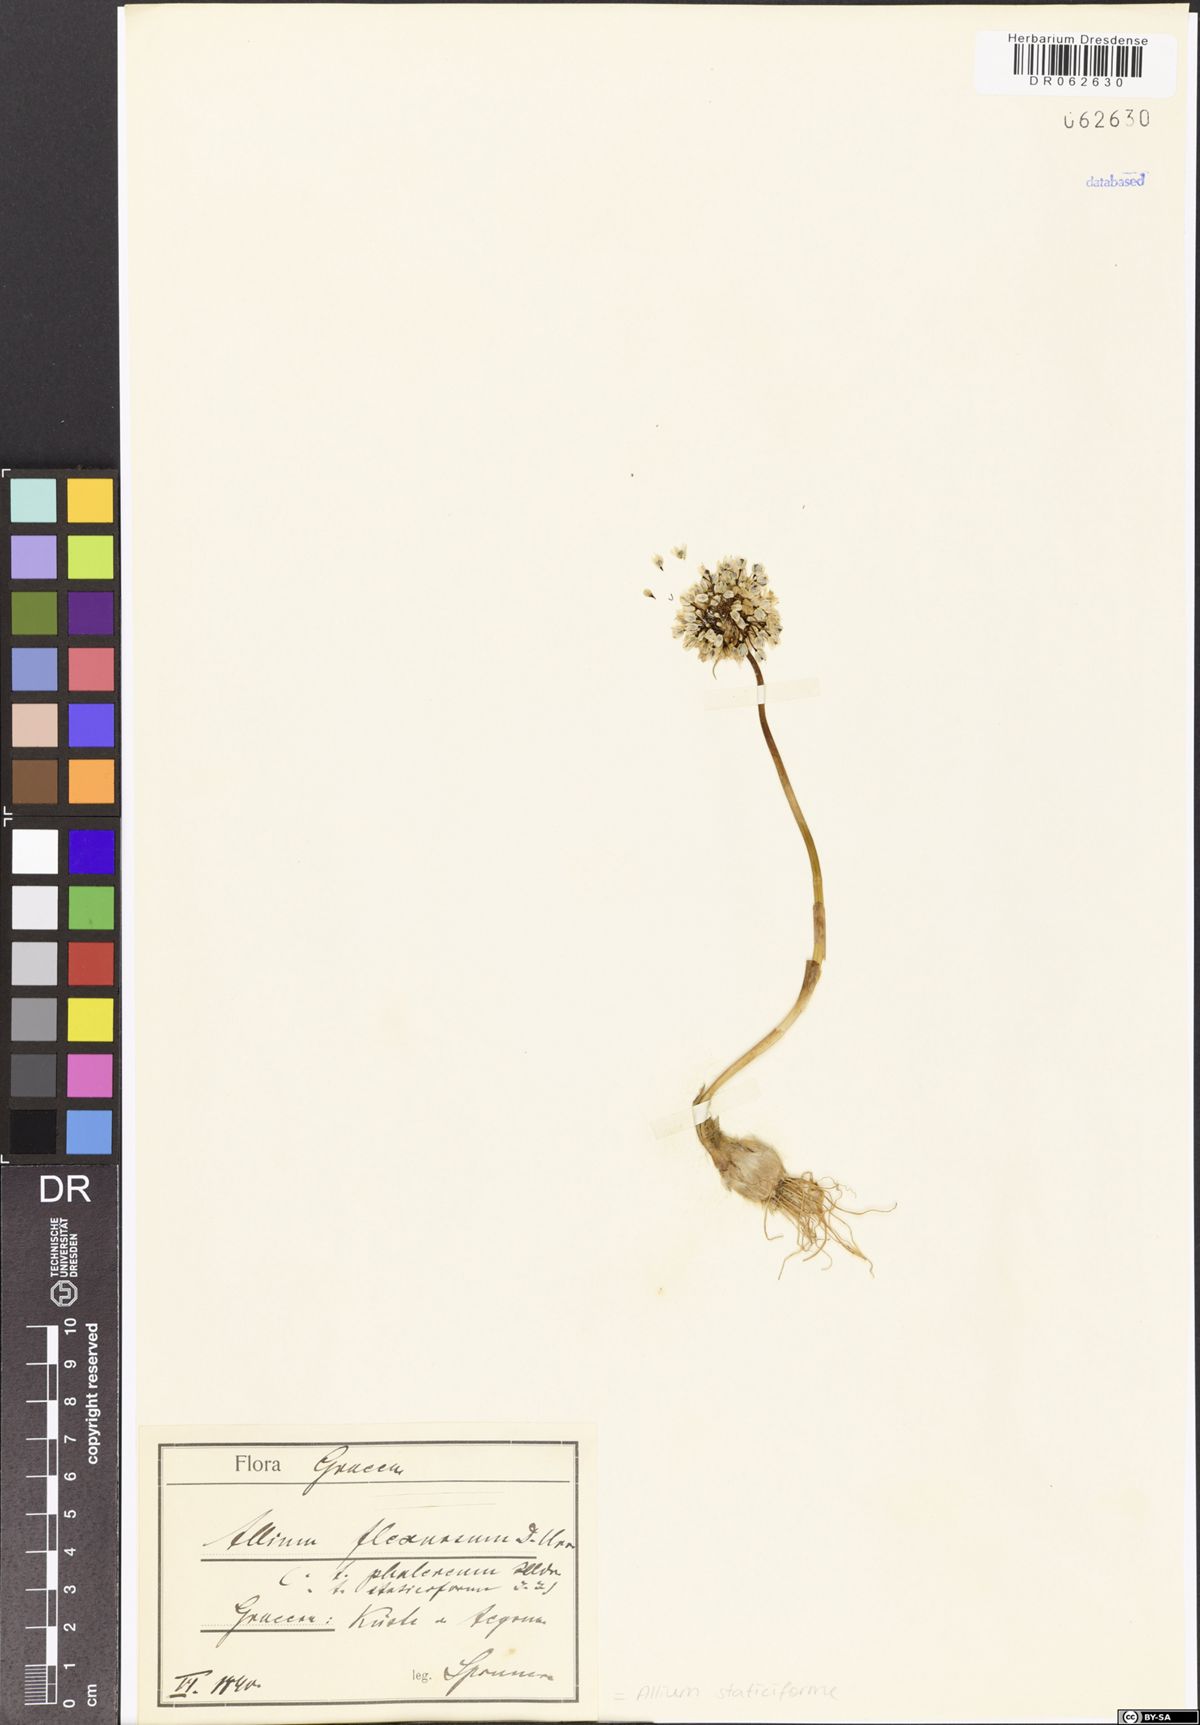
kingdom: Plantae
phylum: Tracheophyta
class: Liliopsida
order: Asparagales
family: Amaryllidaceae
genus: Allium
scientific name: Allium staticiforme
